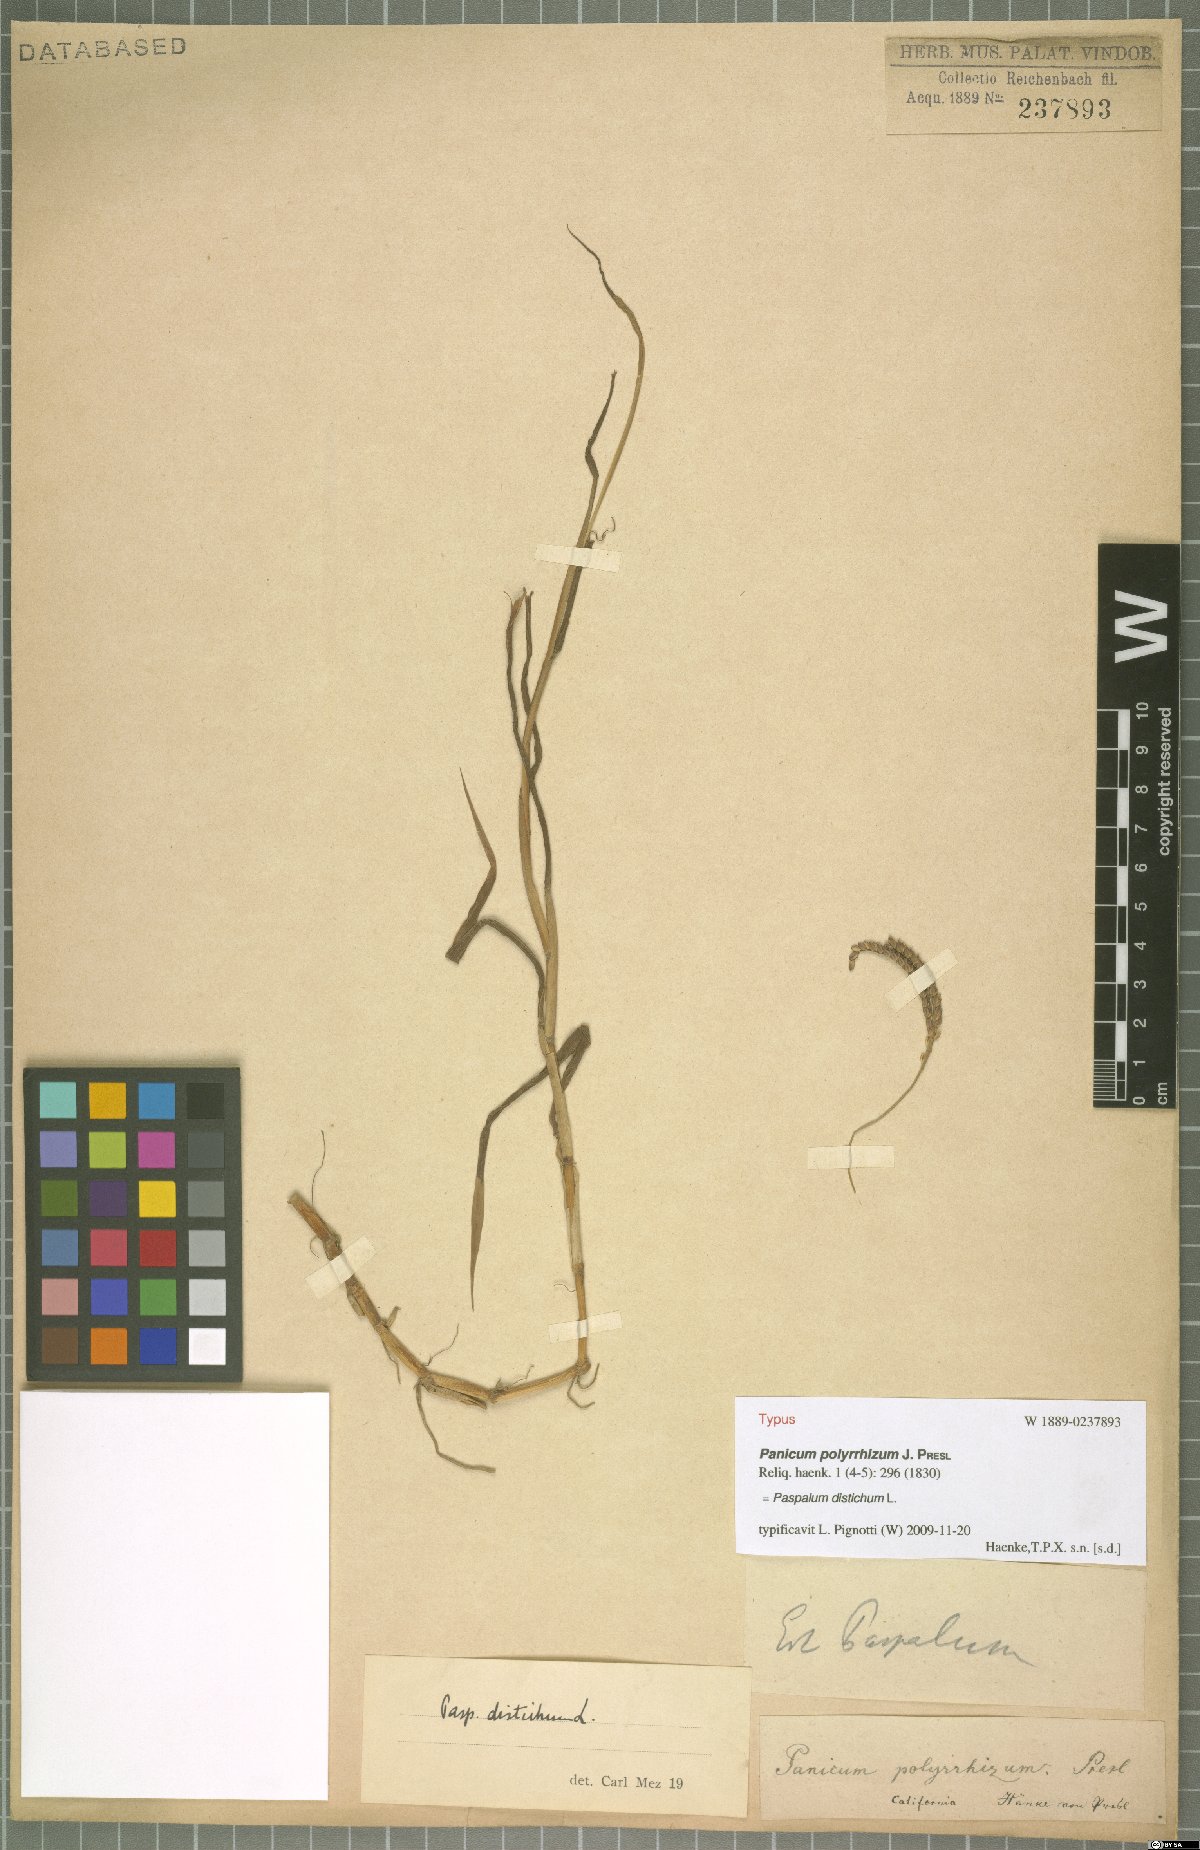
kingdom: Plantae
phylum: Tracheophyta
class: Liliopsida
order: Poales
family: Poaceae
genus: Paspalum
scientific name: Paspalum distichum
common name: Knotgrass
